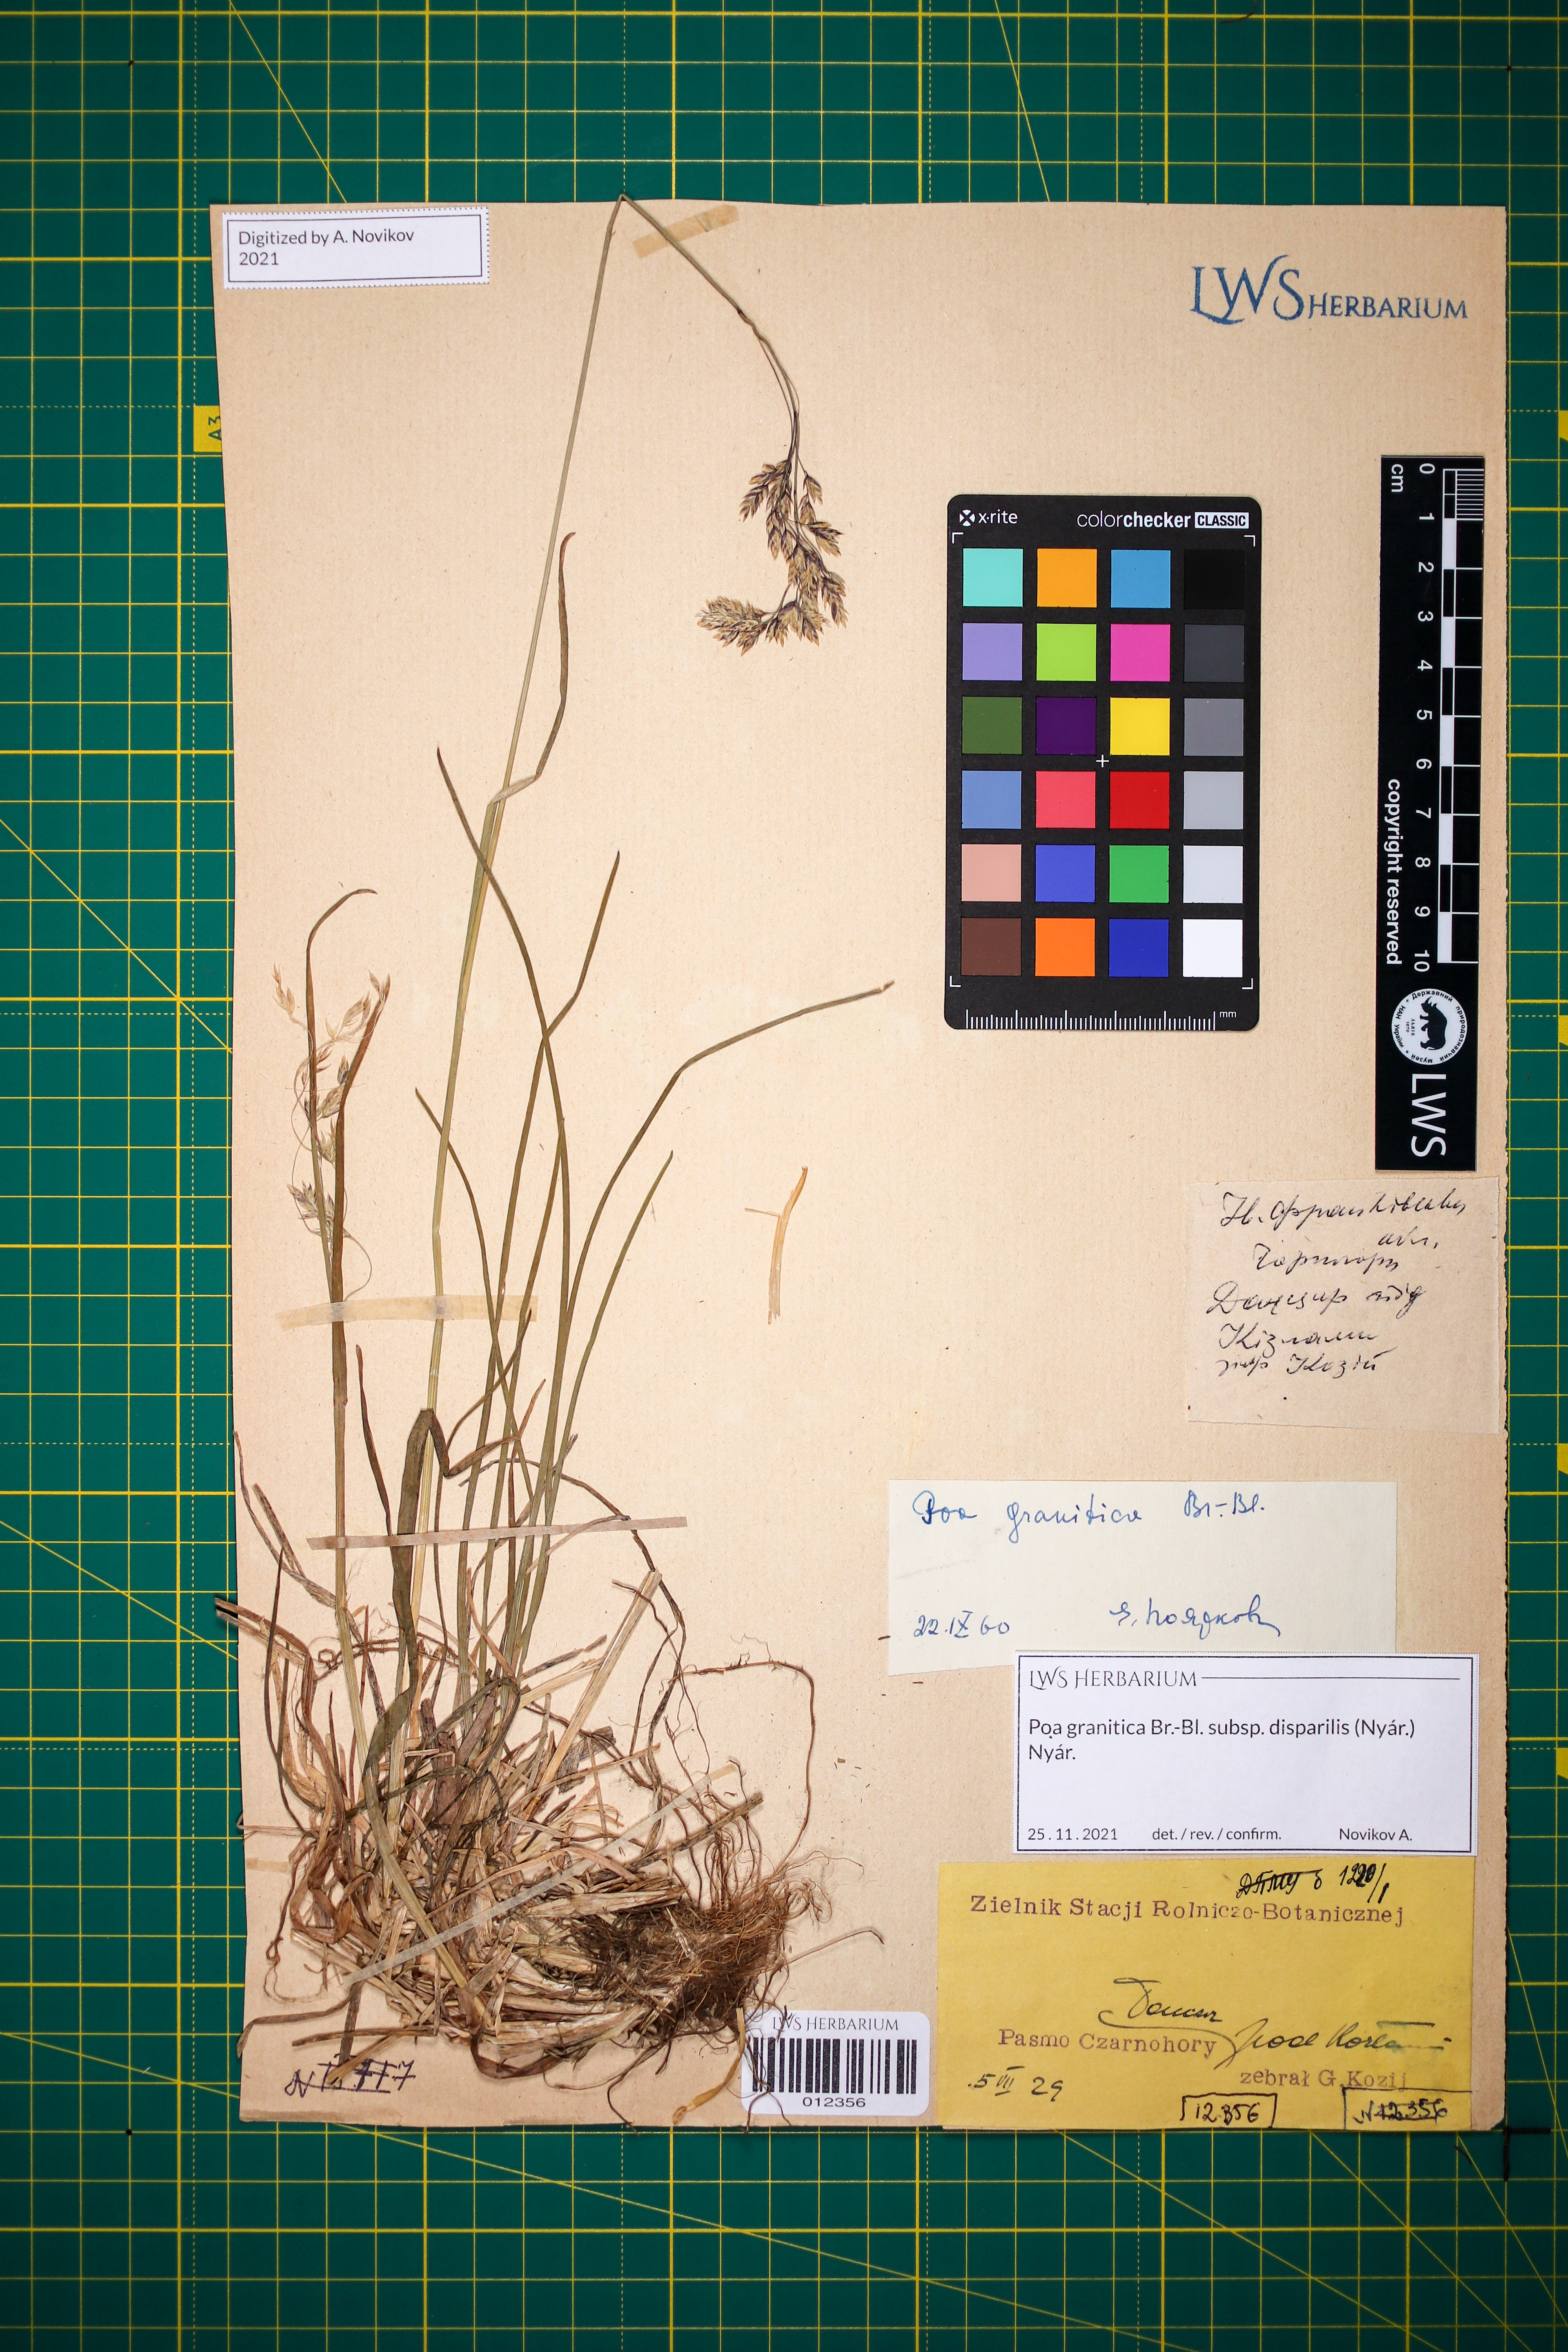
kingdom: Plantae
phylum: Tracheophyta
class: Liliopsida
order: Poales
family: Poaceae
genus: Poa
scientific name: Poa granitica
